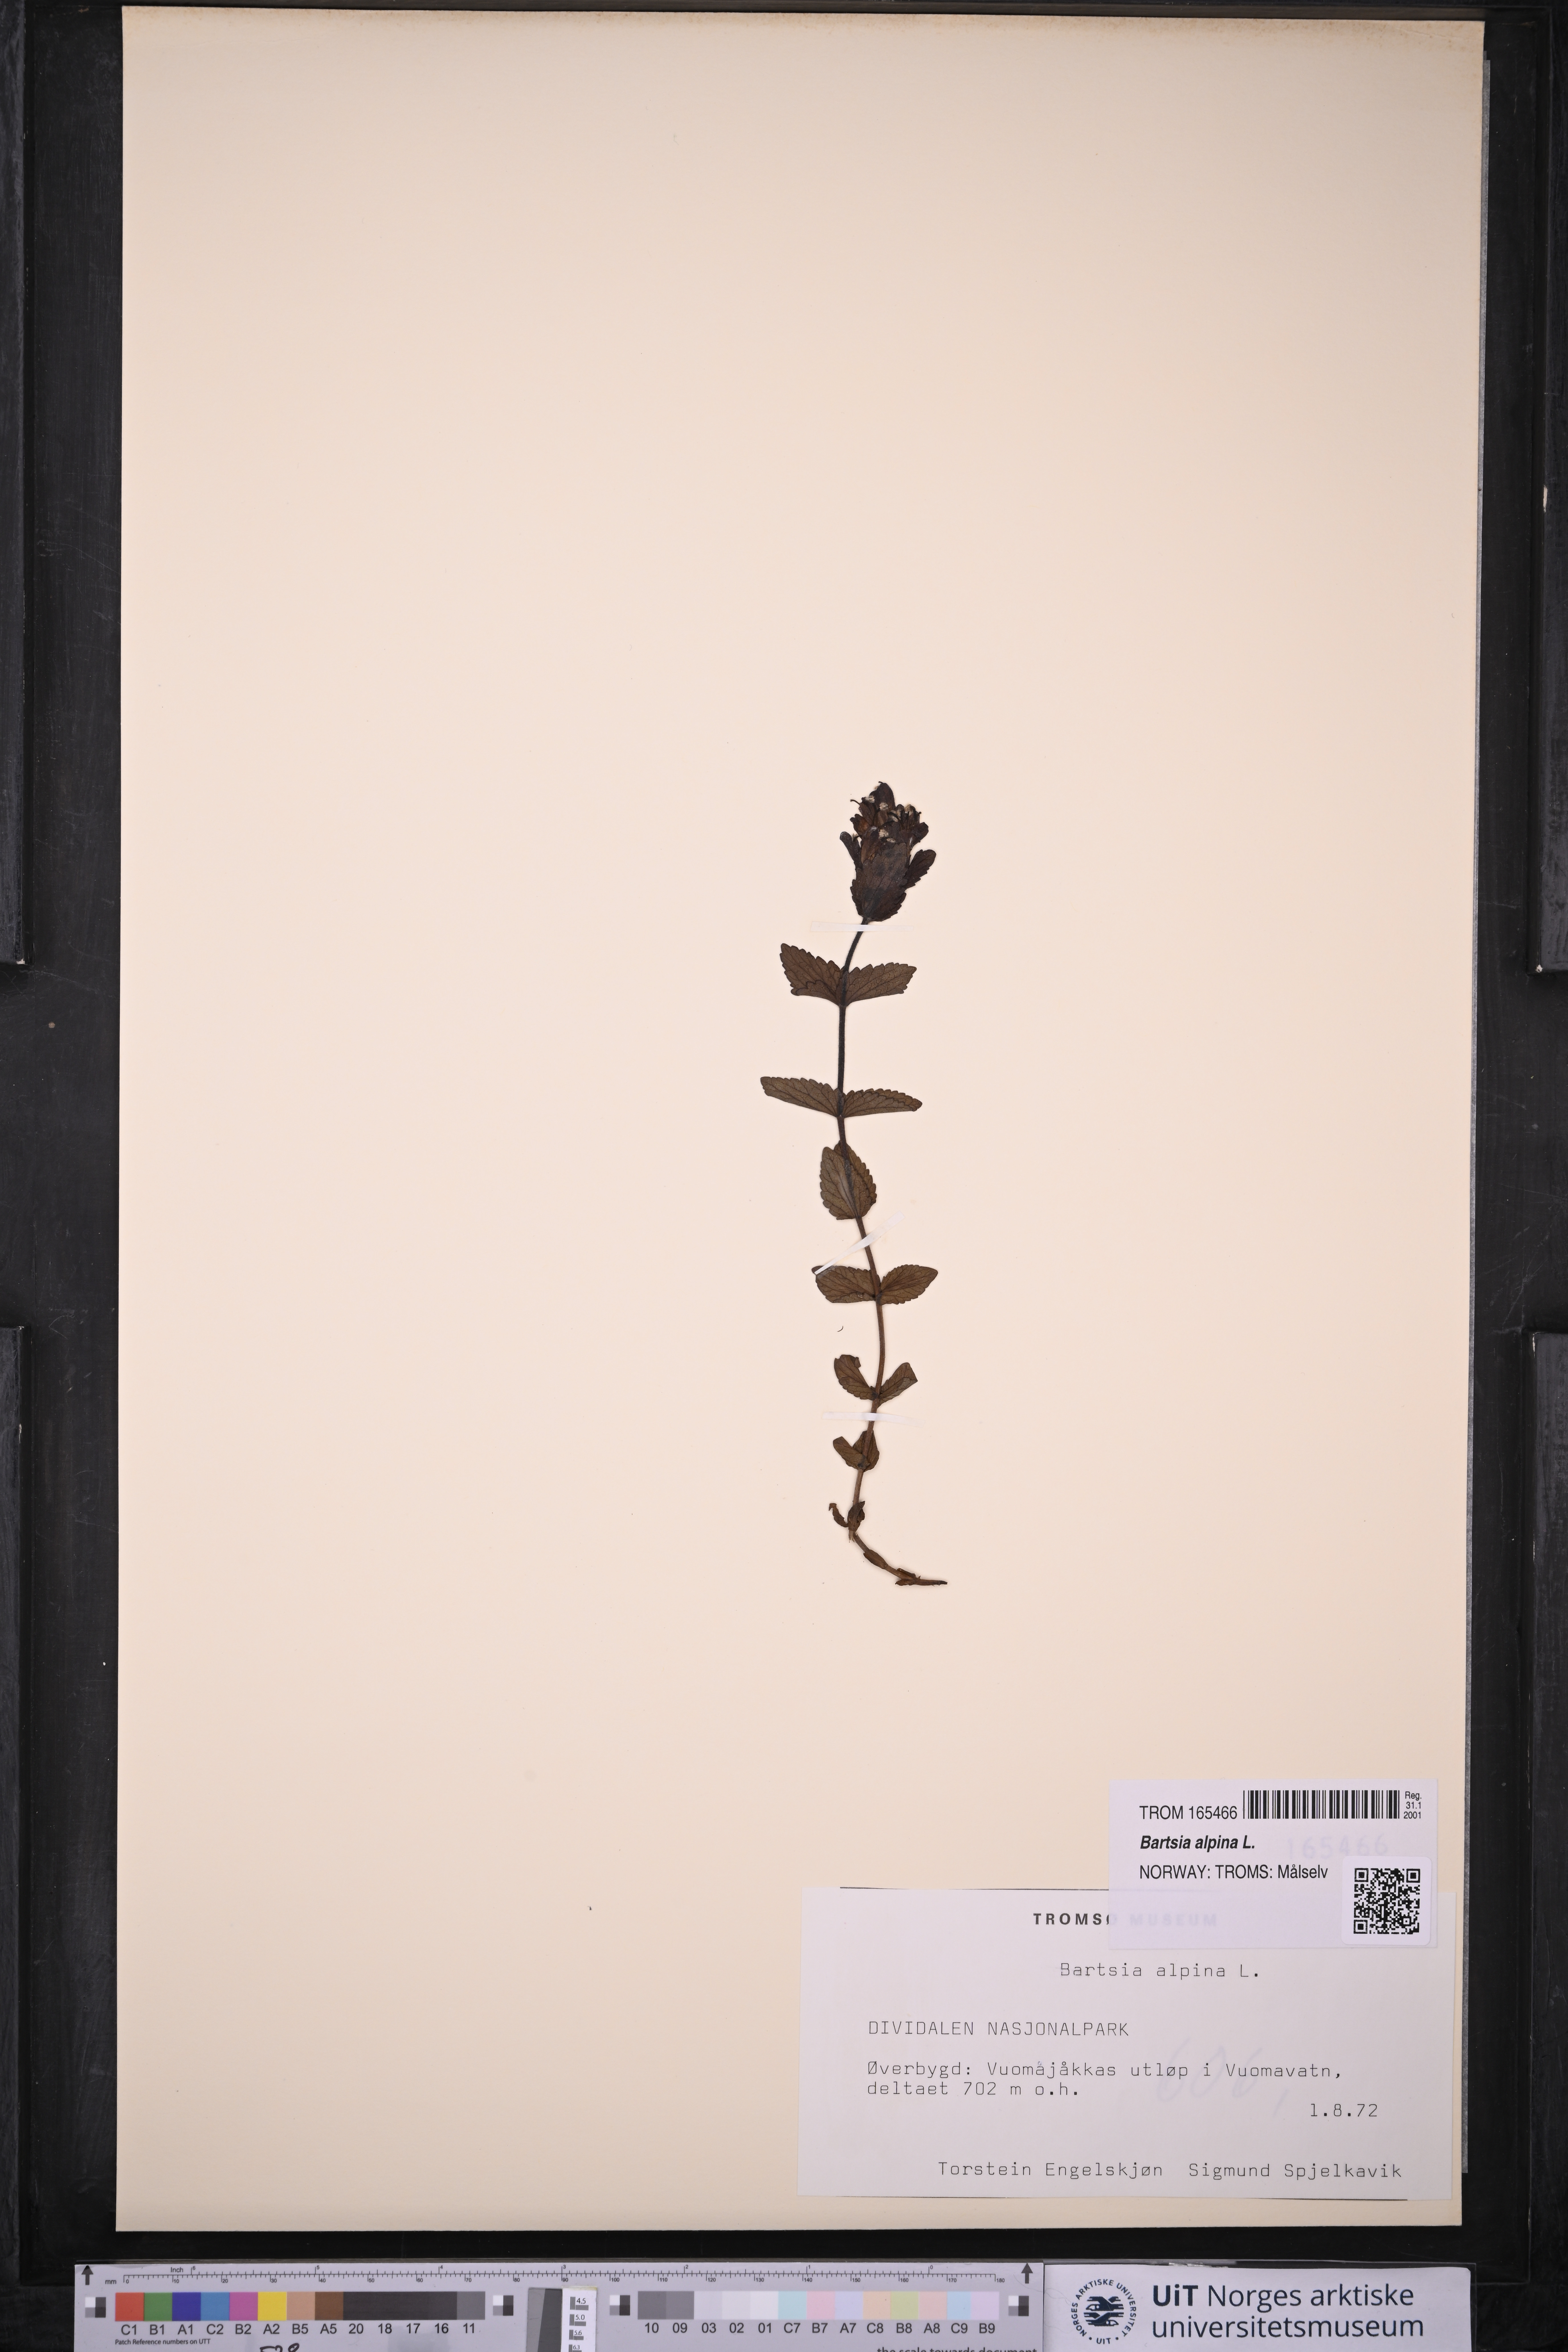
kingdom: Plantae
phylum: Tracheophyta
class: Magnoliopsida
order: Lamiales
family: Orobanchaceae
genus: Bartsia
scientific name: Bartsia alpina
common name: Alpine bartsia
